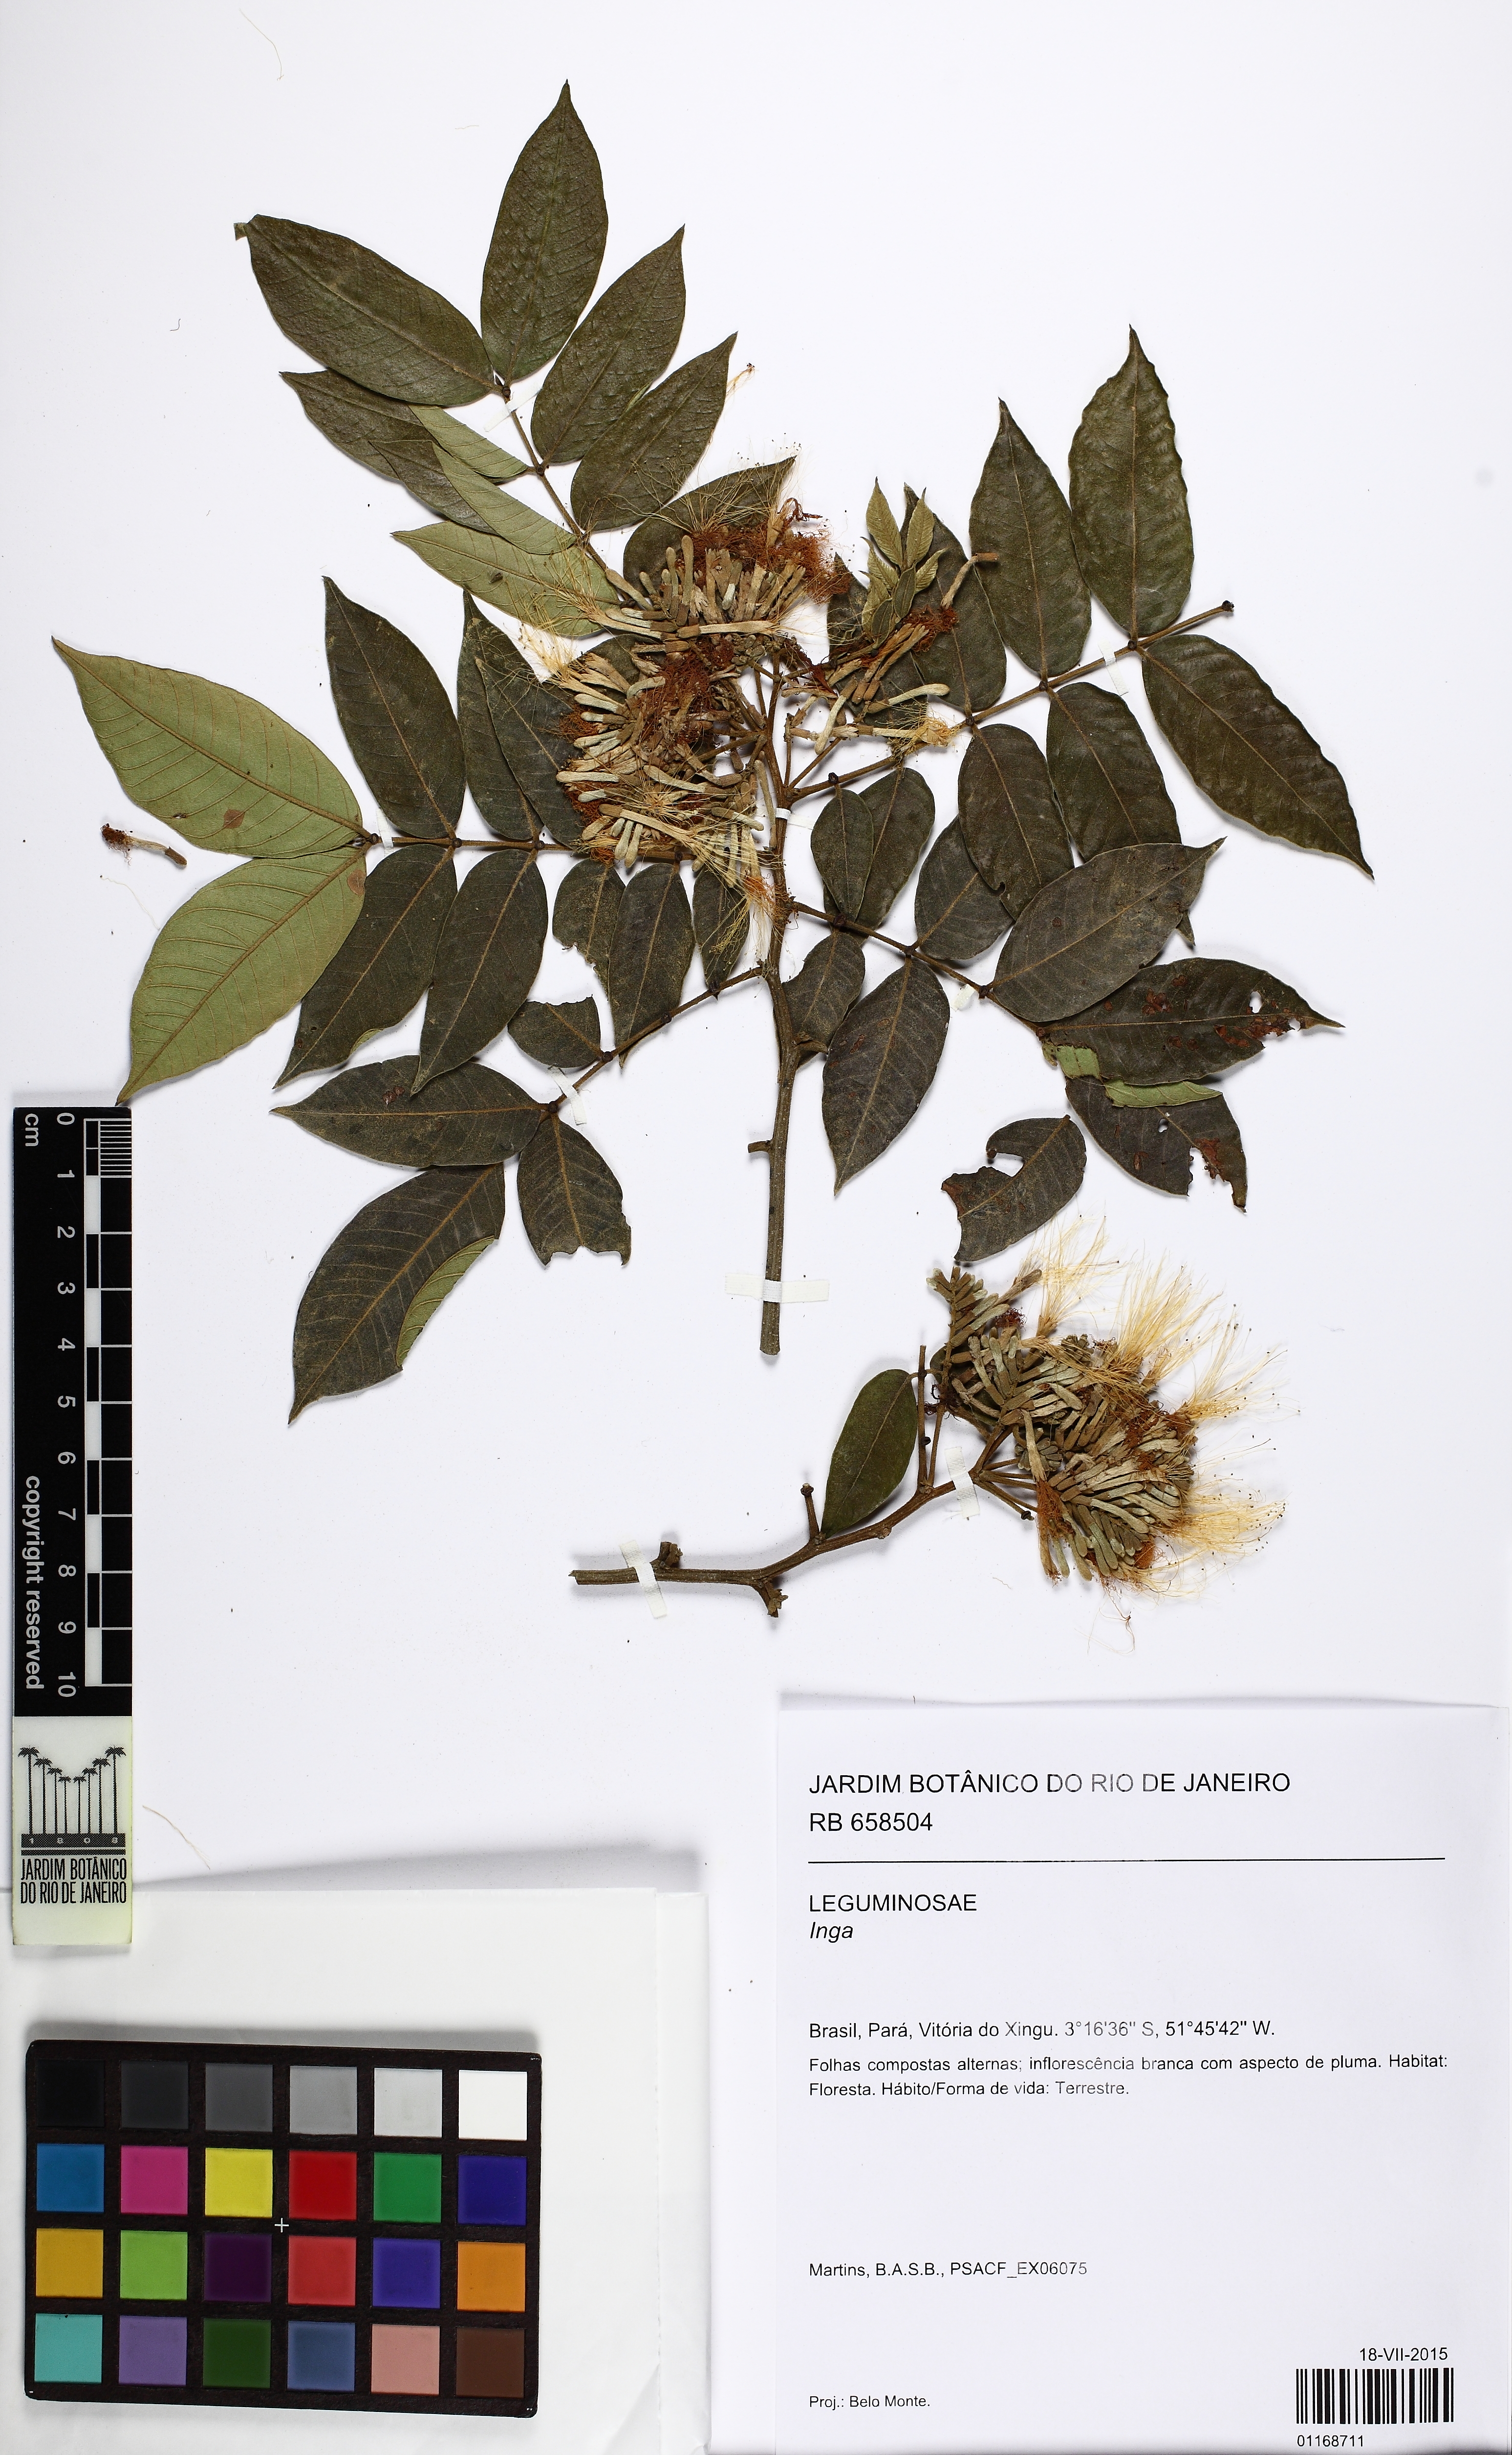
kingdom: Plantae
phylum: Tracheophyta
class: Magnoliopsida
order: Fabales
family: Fabaceae
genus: Inga
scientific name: Inga thibaudiana
